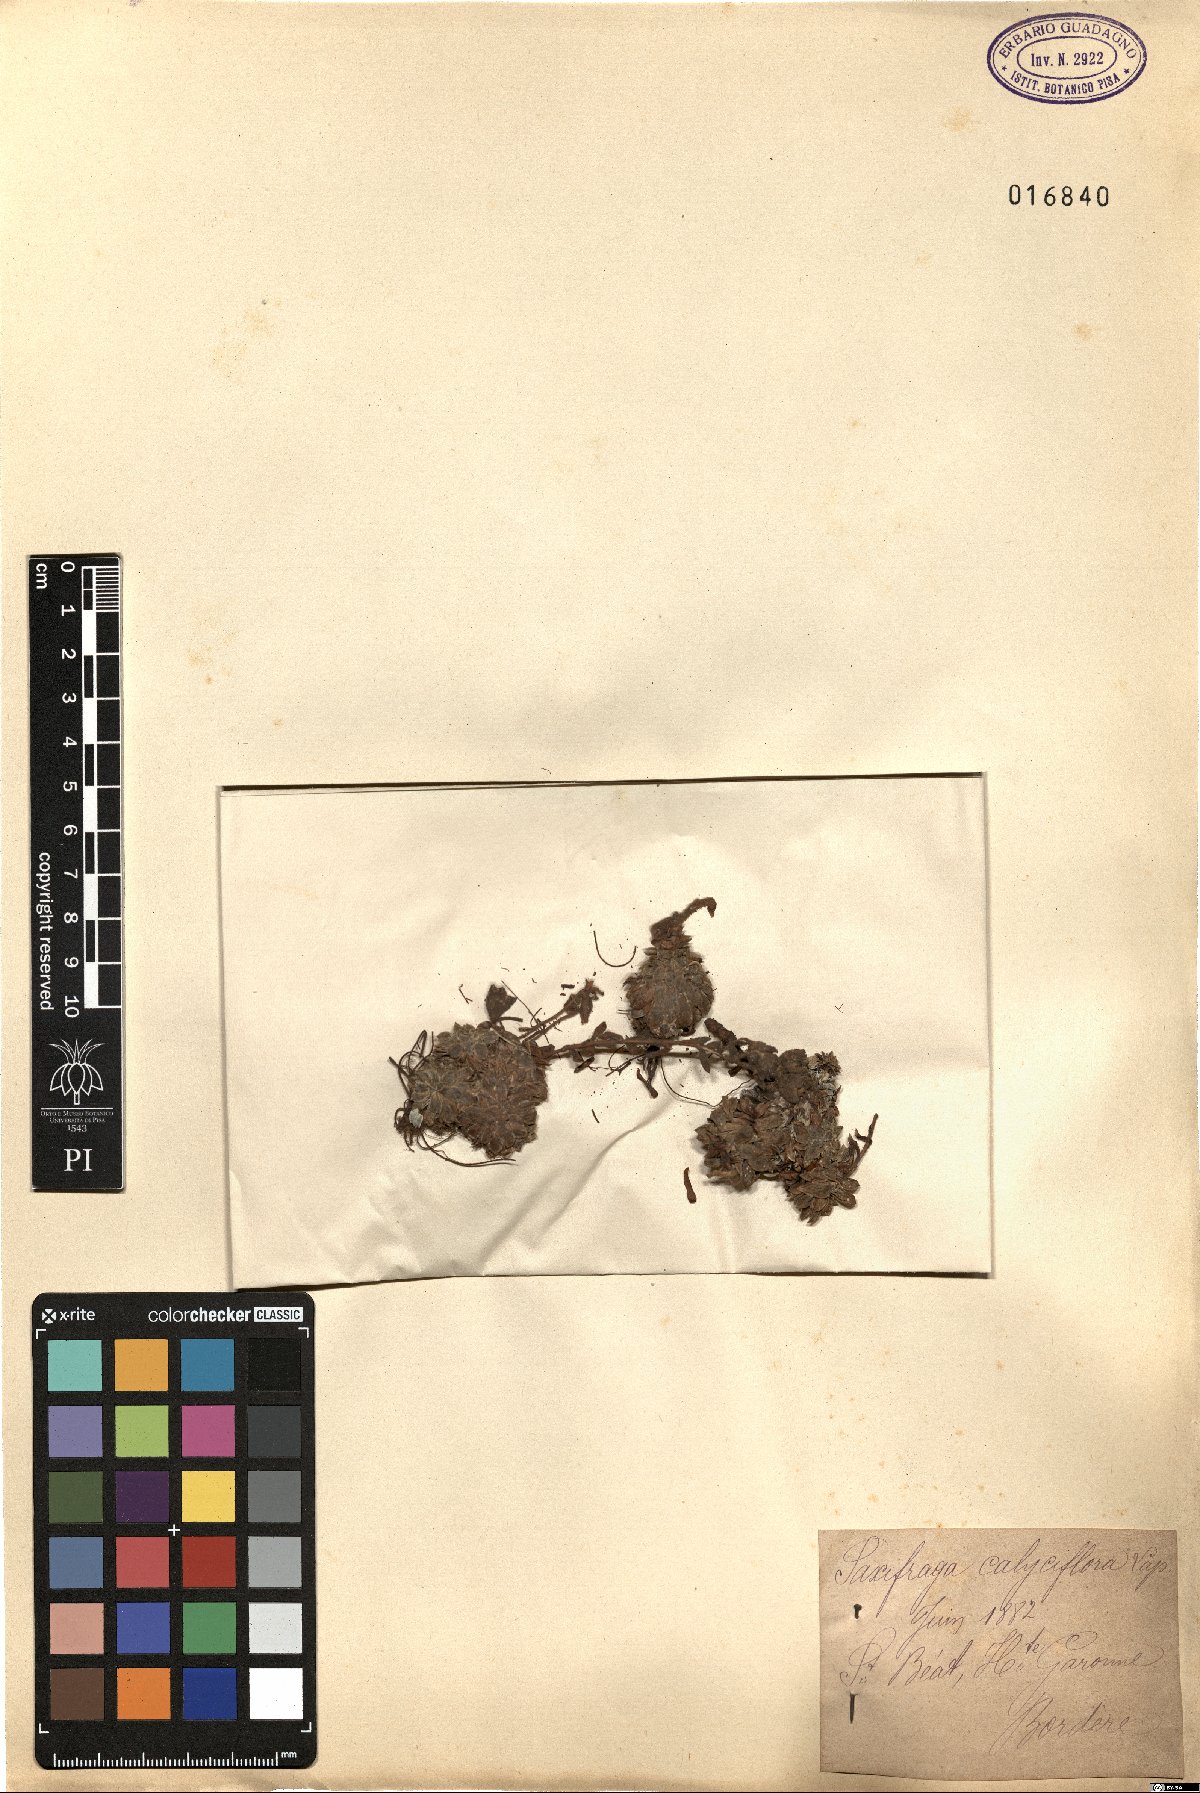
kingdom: Plantae
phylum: Tracheophyta
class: Magnoliopsida
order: Saxifragales
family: Saxifragaceae
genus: Saxifraga
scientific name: Saxifraga media
